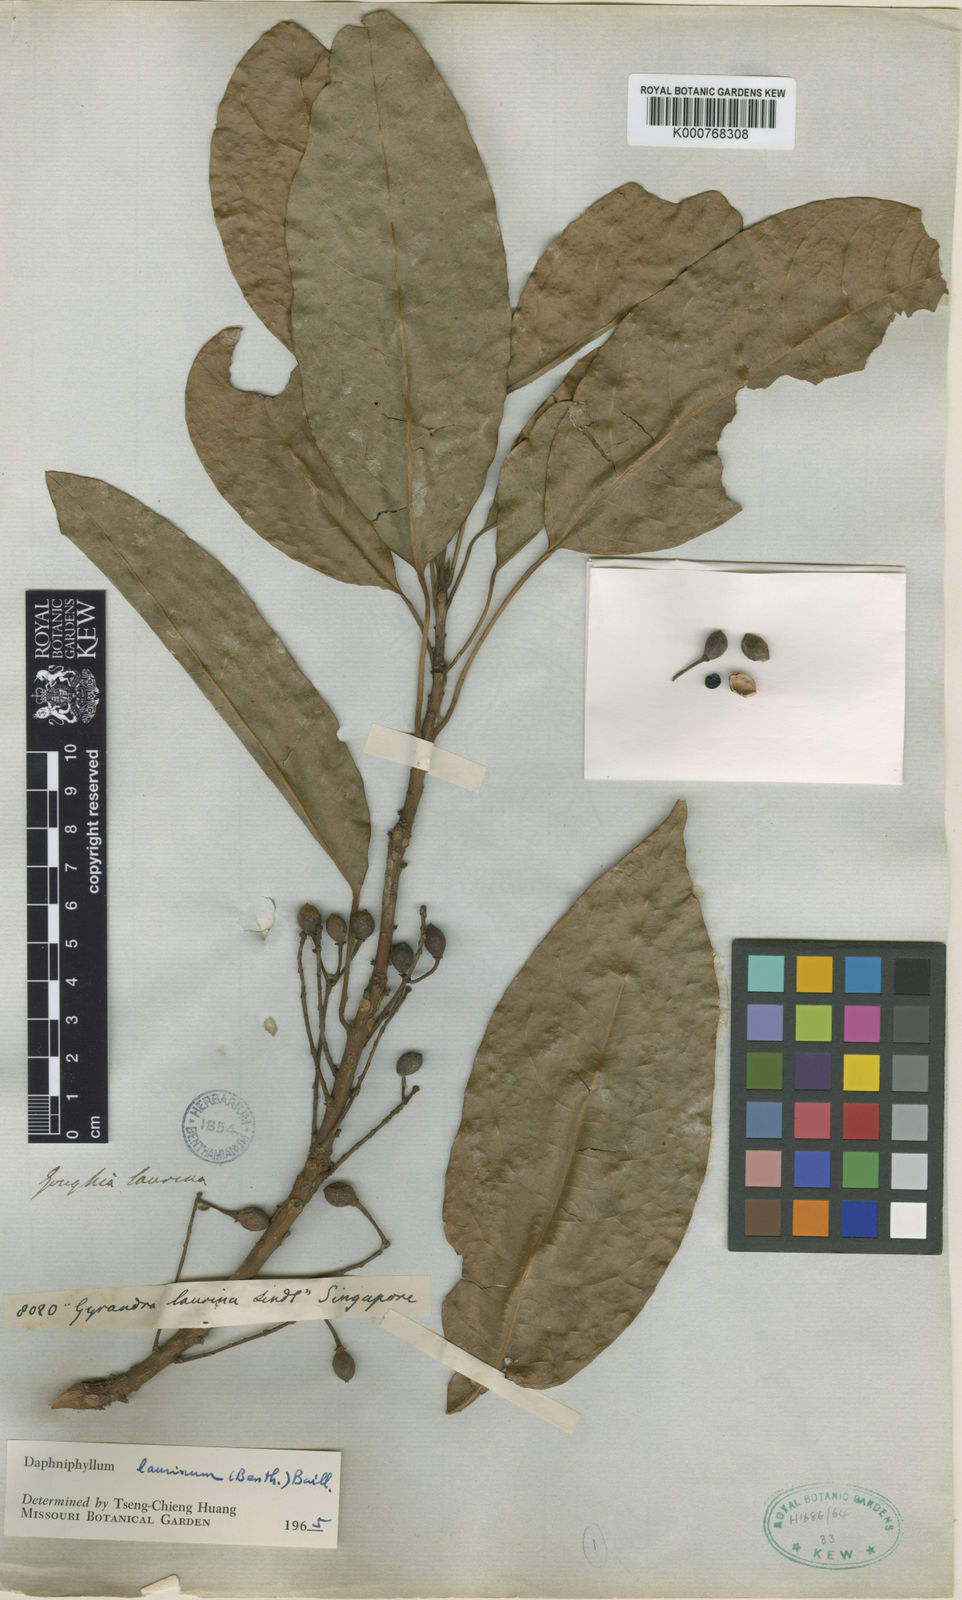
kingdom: Plantae
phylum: Tracheophyta
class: Magnoliopsida
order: Saxifragales
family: Daphniphyllaceae
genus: Daphniphyllum
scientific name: Daphniphyllum laurinum
